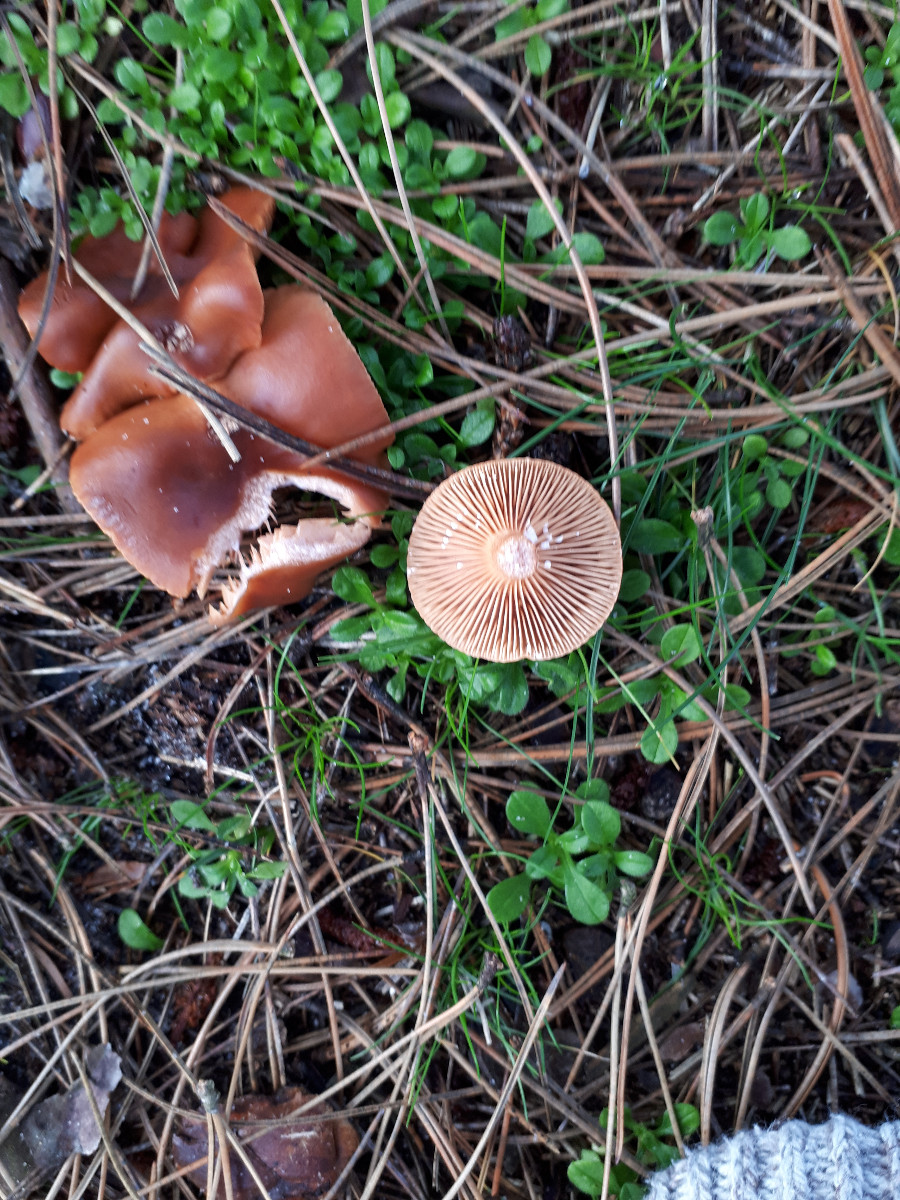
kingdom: Fungi
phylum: Basidiomycota
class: Agaricomycetes
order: Russulales
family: Russulaceae
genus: Lactarius
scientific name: Lactarius hepaticus
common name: leverbrun mælkehat
